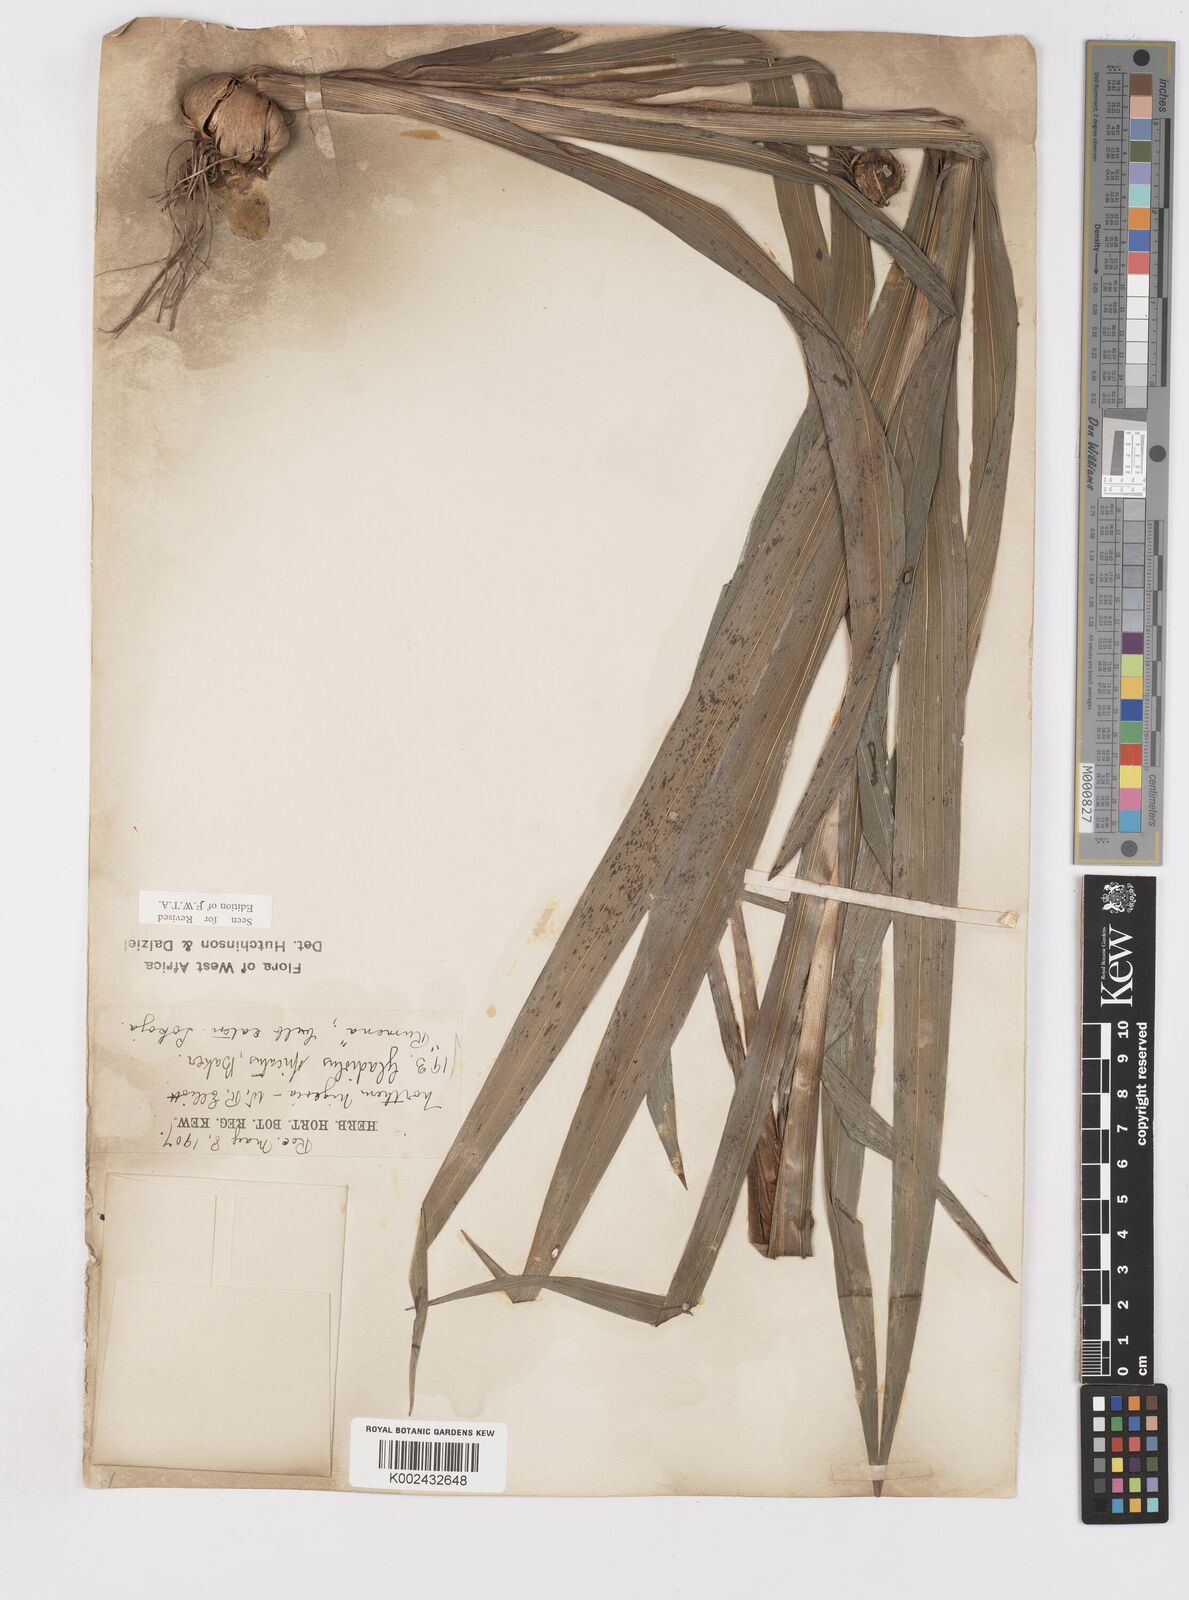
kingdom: Plantae
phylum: Tracheophyta
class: Liliopsida
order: Asparagales
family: Iridaceae
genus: Gladiolus
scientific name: Gladiolus gregarius
